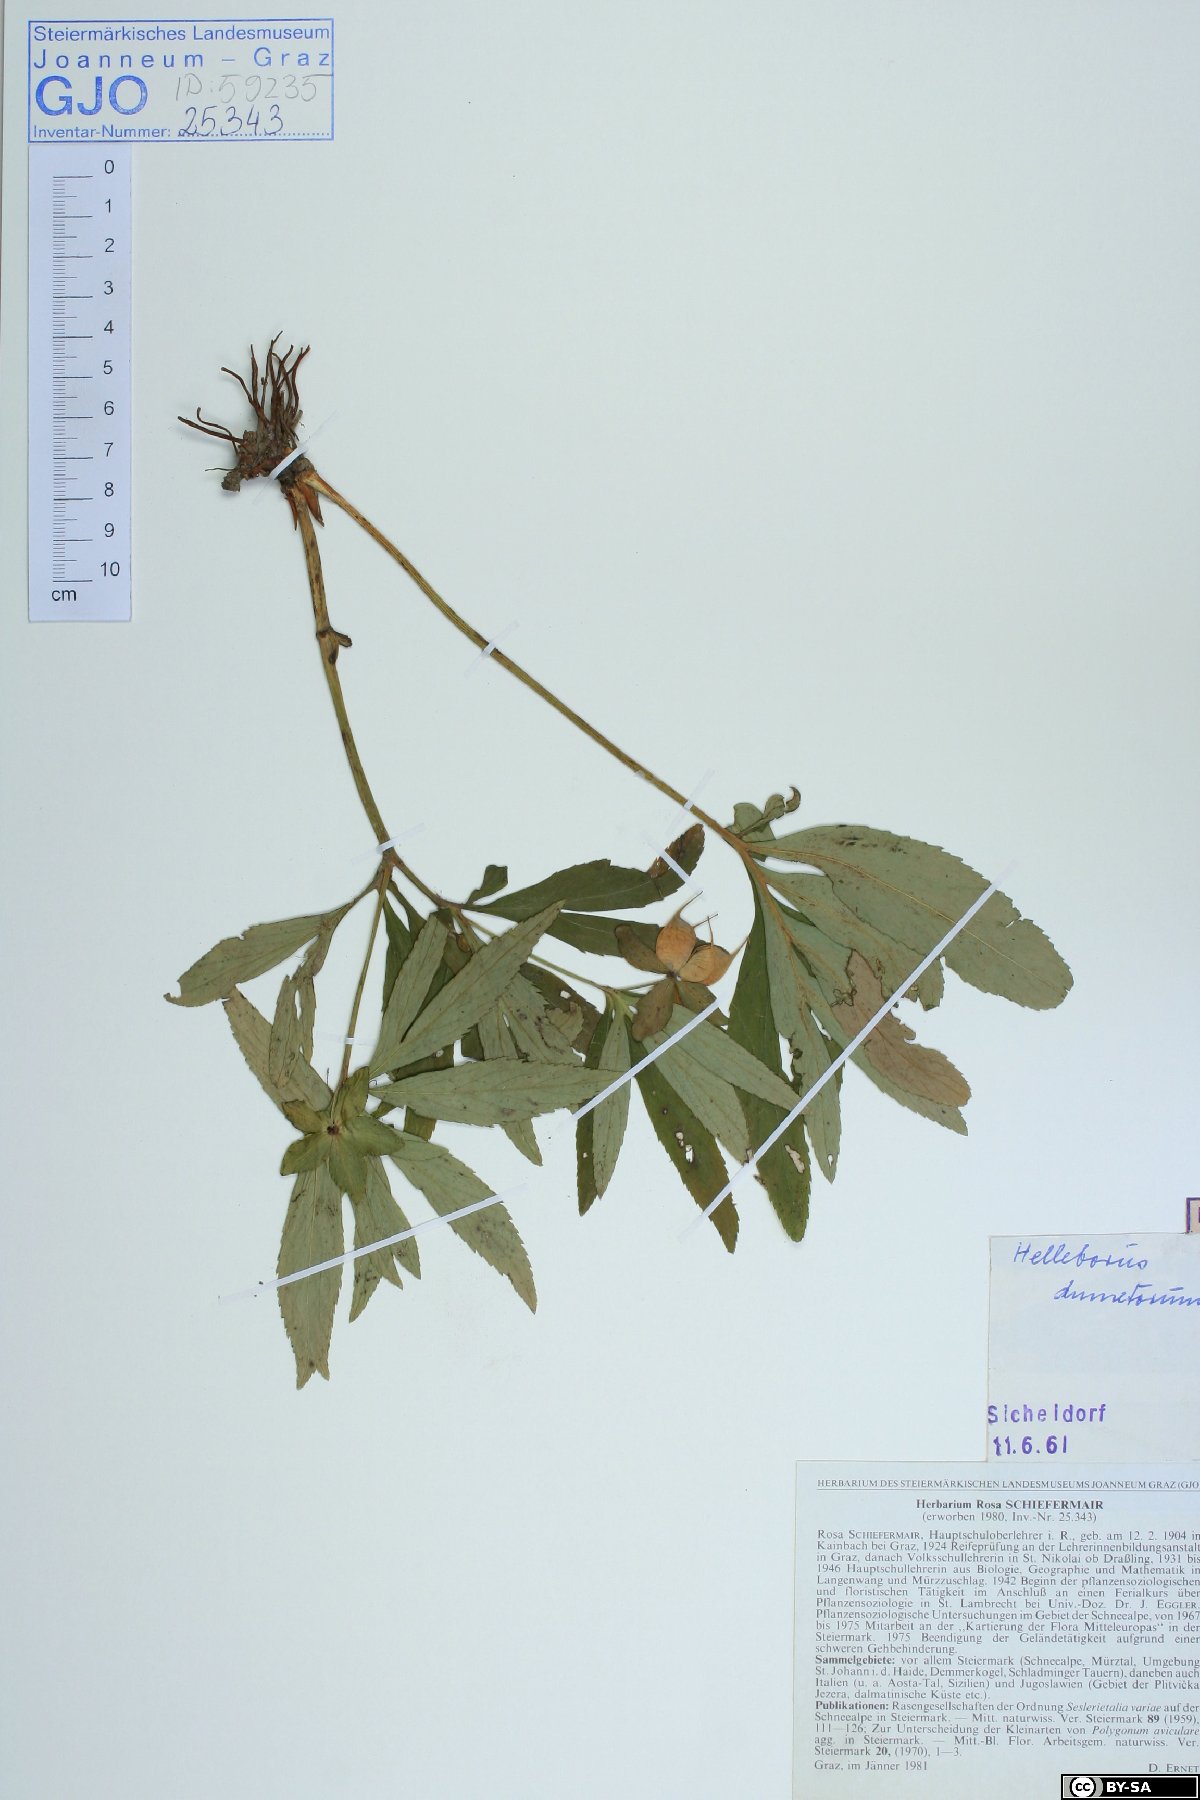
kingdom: Plantae
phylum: Tracheophyta
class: Magnoliopsida
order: Ranunculales
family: Ranunculaceae
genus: Helleborus
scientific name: Helleborus dumetorum
